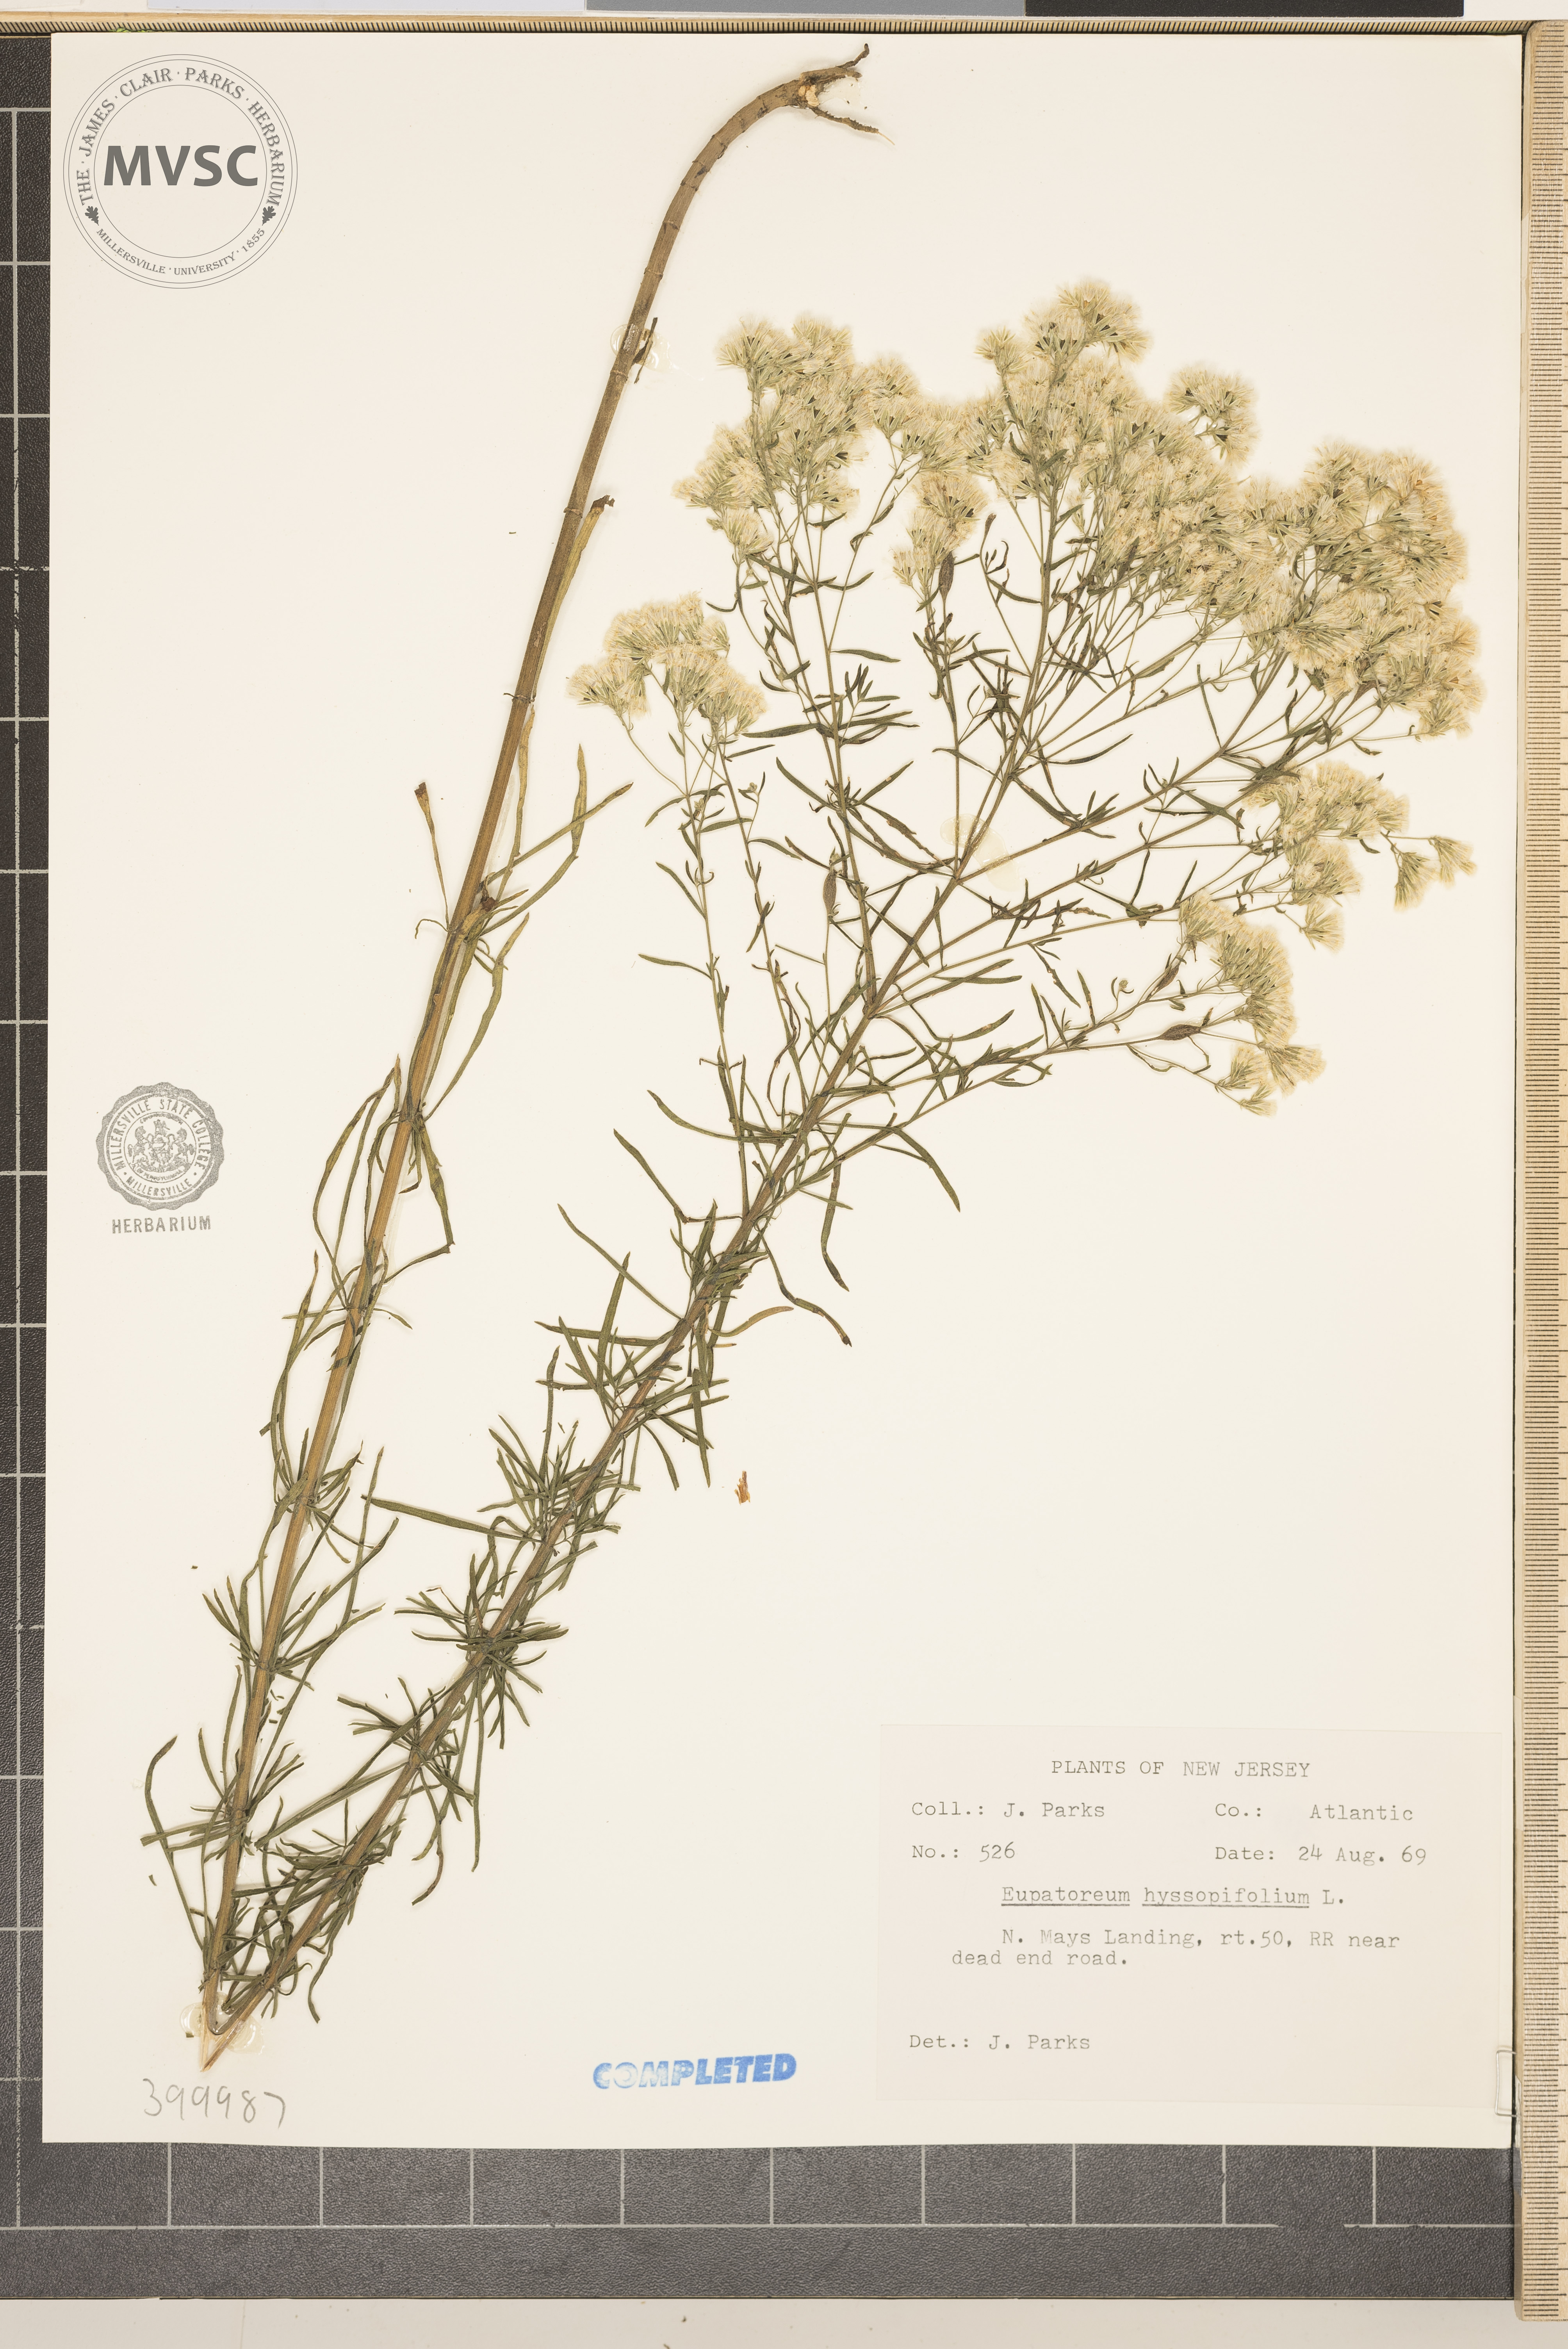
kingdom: Plantae
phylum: Tracheophyta
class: Magnoliopsida
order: Asterales
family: Asteraceae
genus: Eupatorium
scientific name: Eupatorium hyssopifolium
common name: Hyssop-leaf thoroughwort
